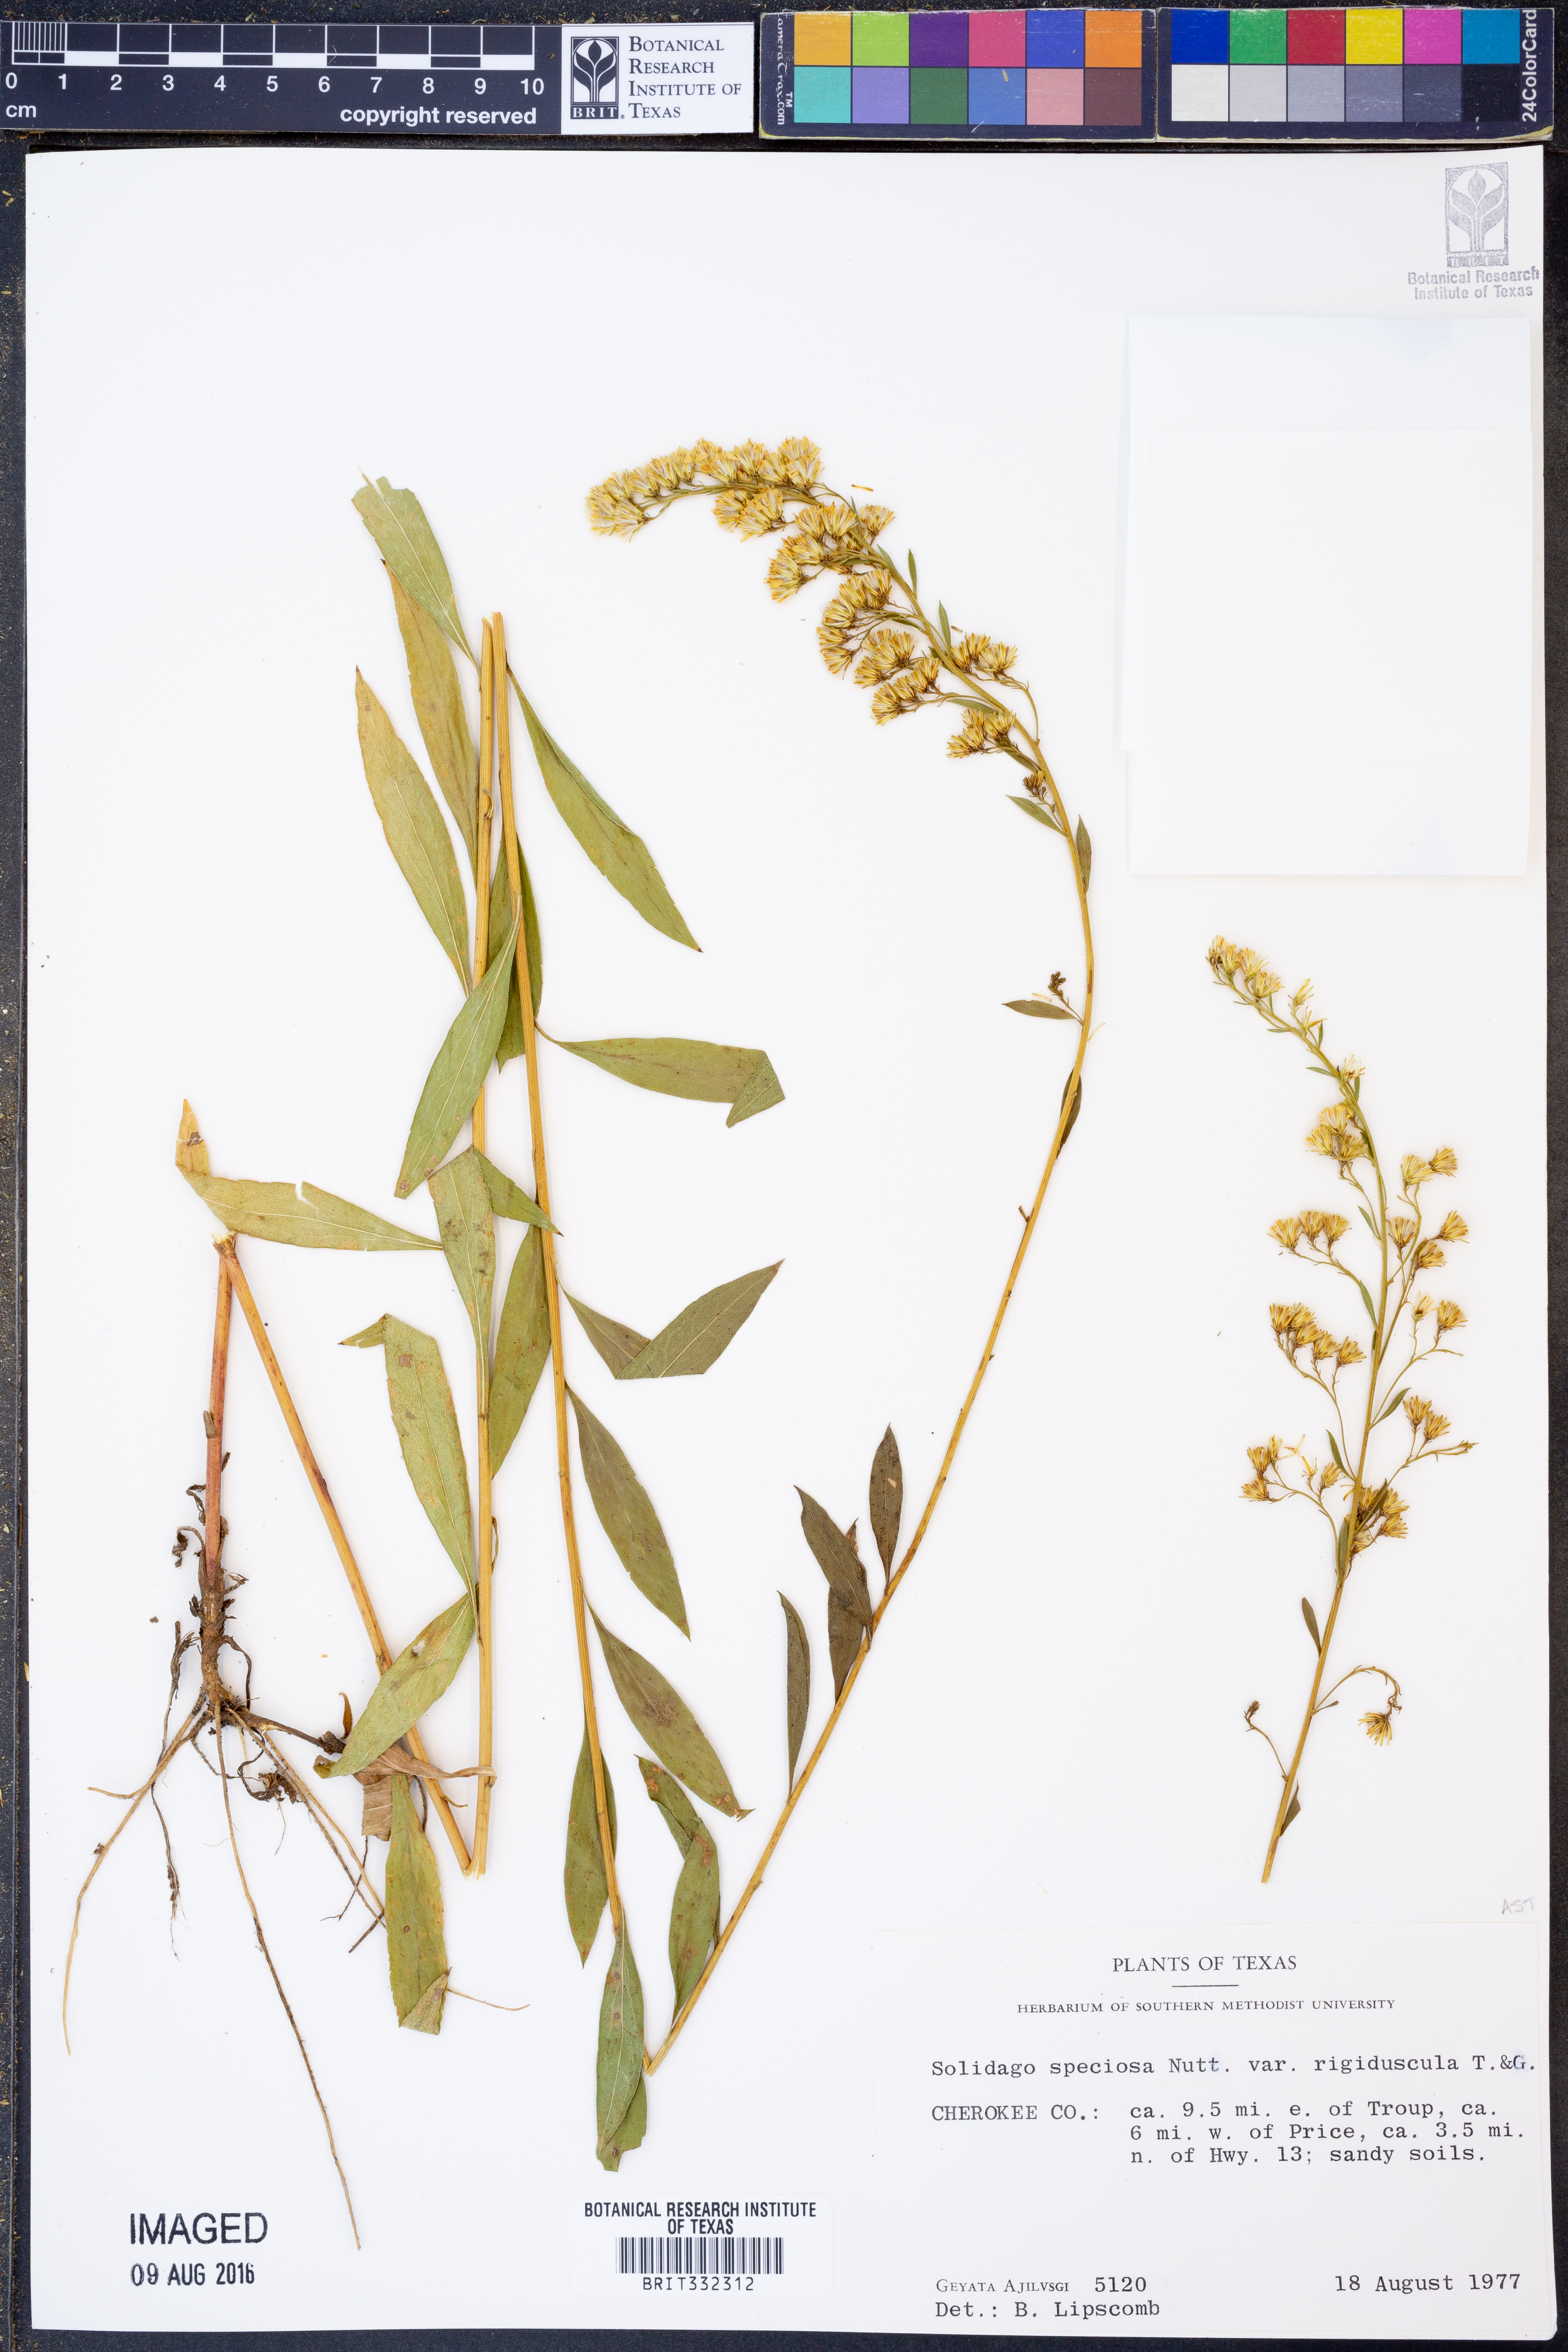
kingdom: Plantae
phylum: Tracheophyta
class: Magnoliopsida
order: Asterales
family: Asteraceae
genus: Solidago
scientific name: Solidago gigantea
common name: Giant goldenrod
